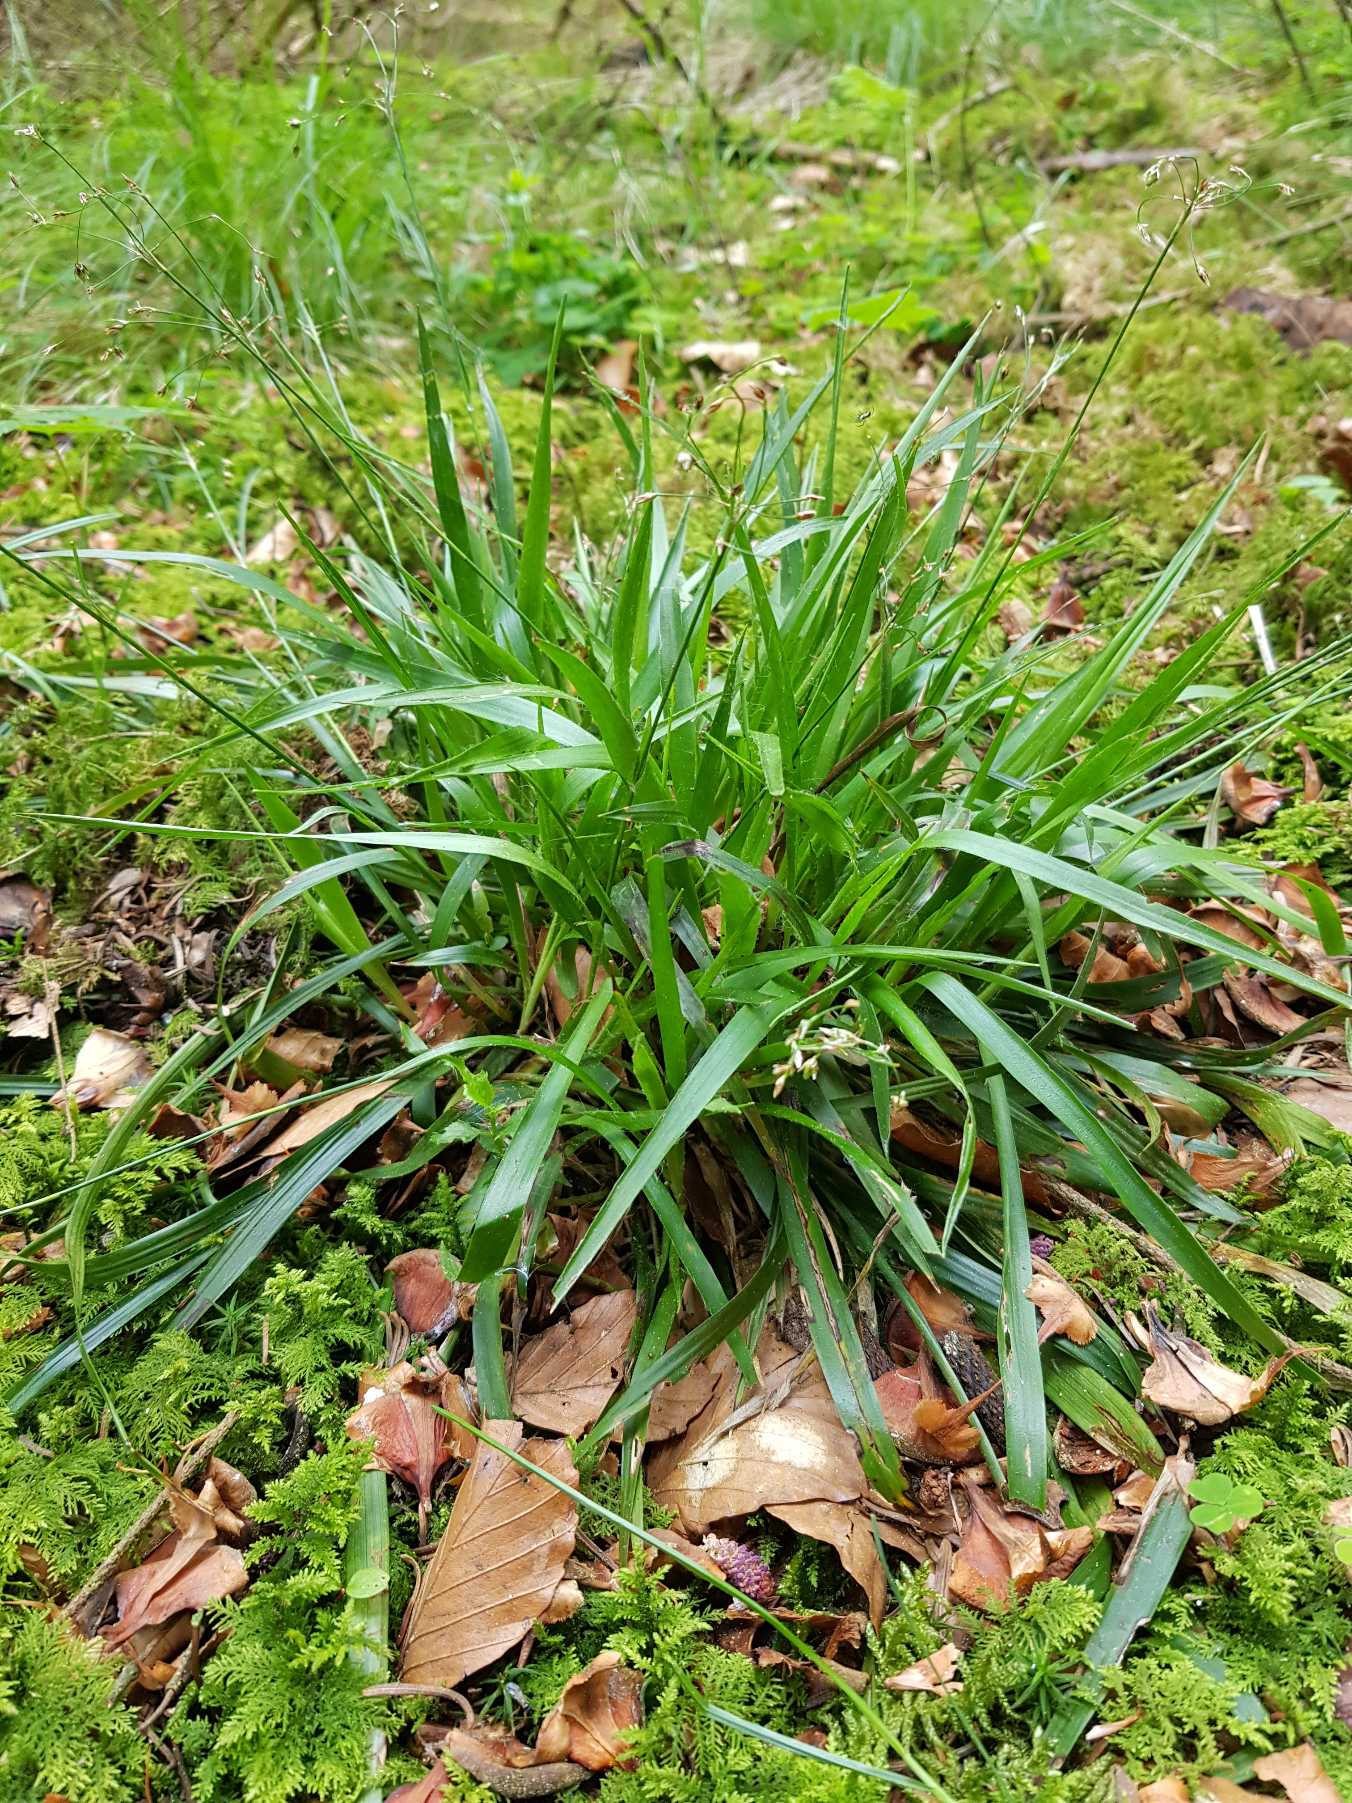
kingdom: Plantae
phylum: Tracheophyta
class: Liliopsida
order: Poales
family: Juncaceae
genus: Luzula
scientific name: Luzula pilosa
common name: Håret frytle
